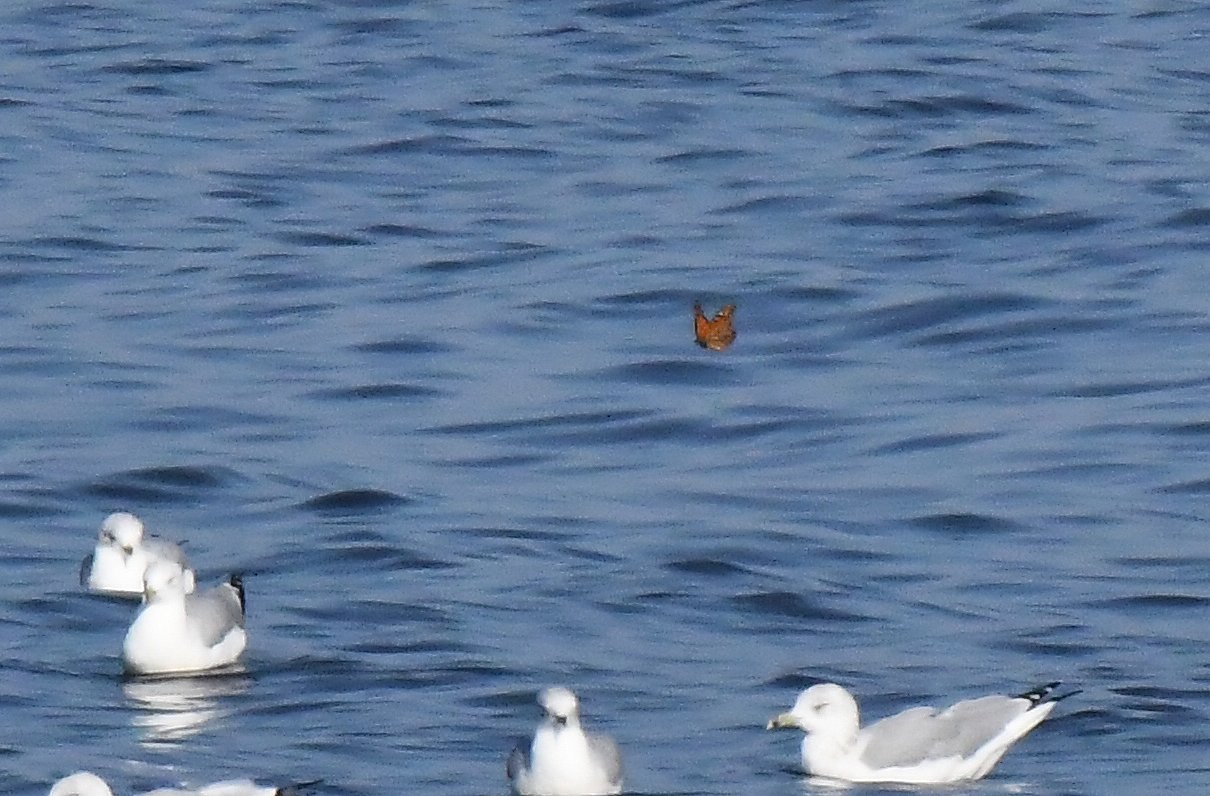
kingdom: Animalia
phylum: Arthropoda
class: Insecta
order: Lepidoptera
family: Nymphalidae
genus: Danaus
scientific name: Danaus plexippus
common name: Monarch
